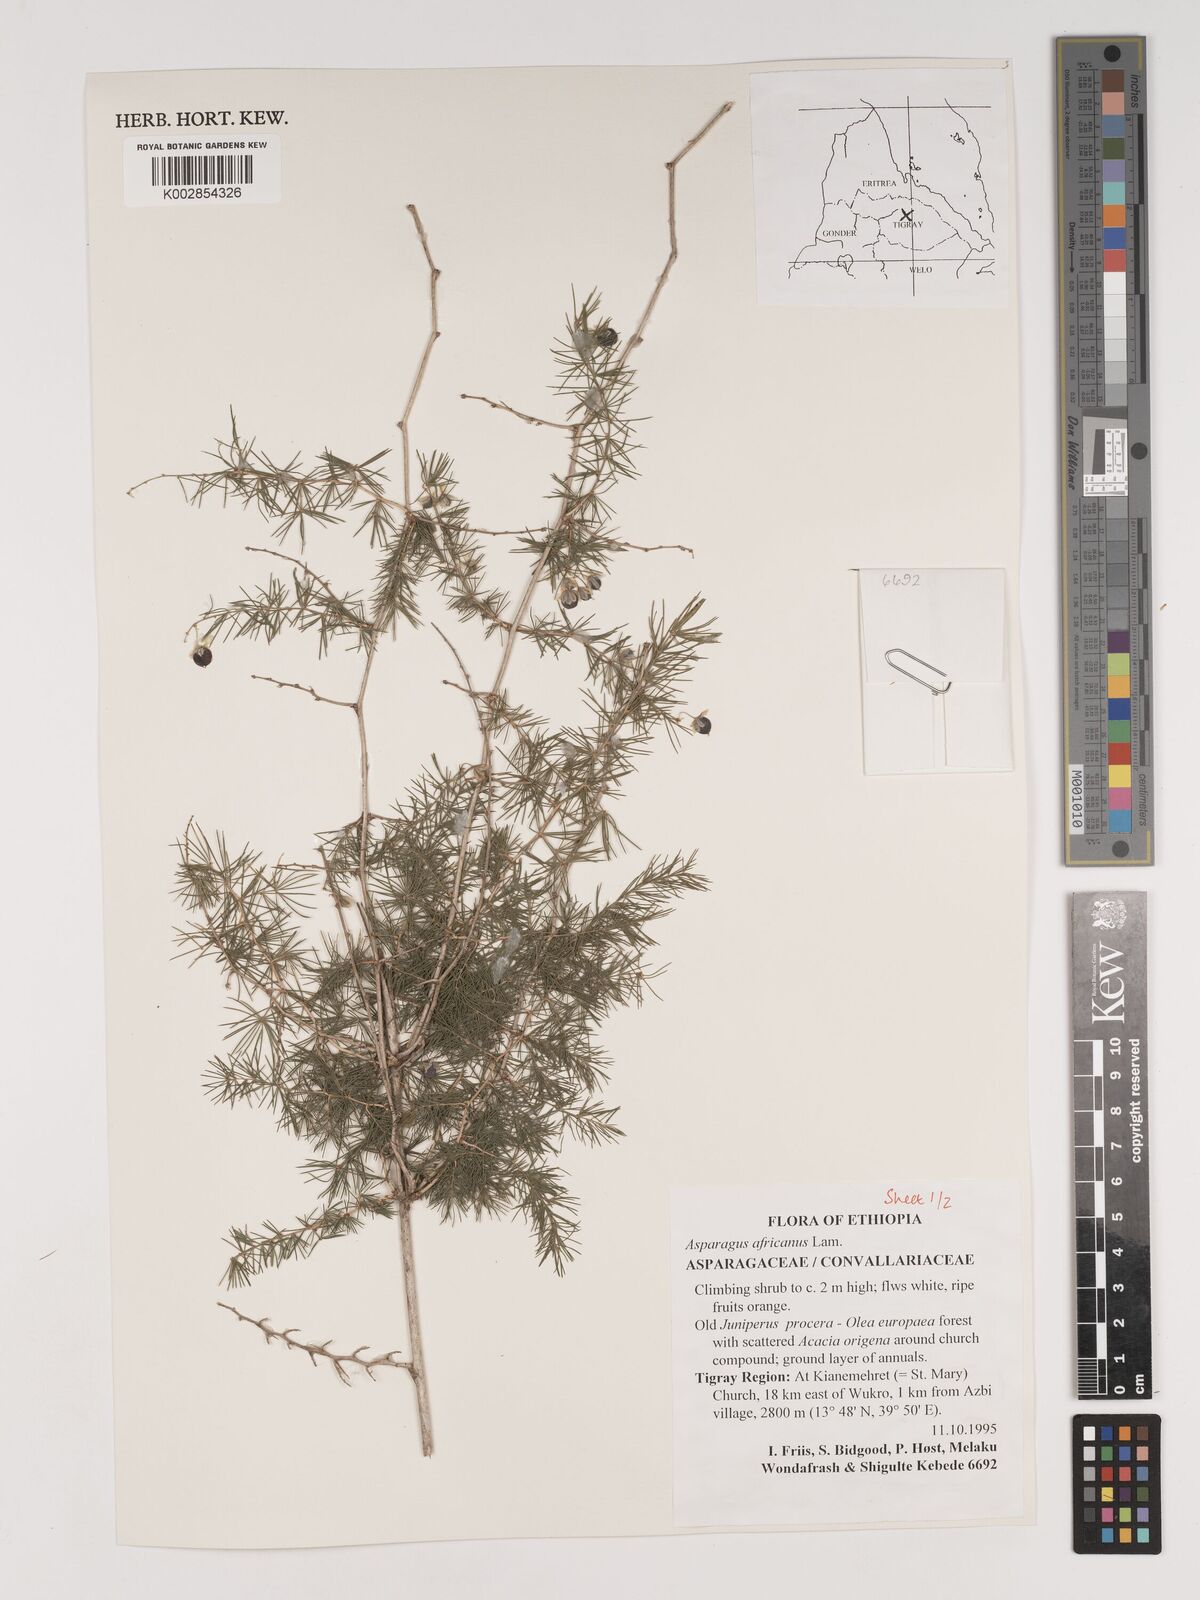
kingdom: Plantae
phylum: Tracheophyta
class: Liliopsida
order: Asparagales
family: Asparagaceae
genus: Asparagus
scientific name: Asparagus africanus
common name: Asparagus-fern
